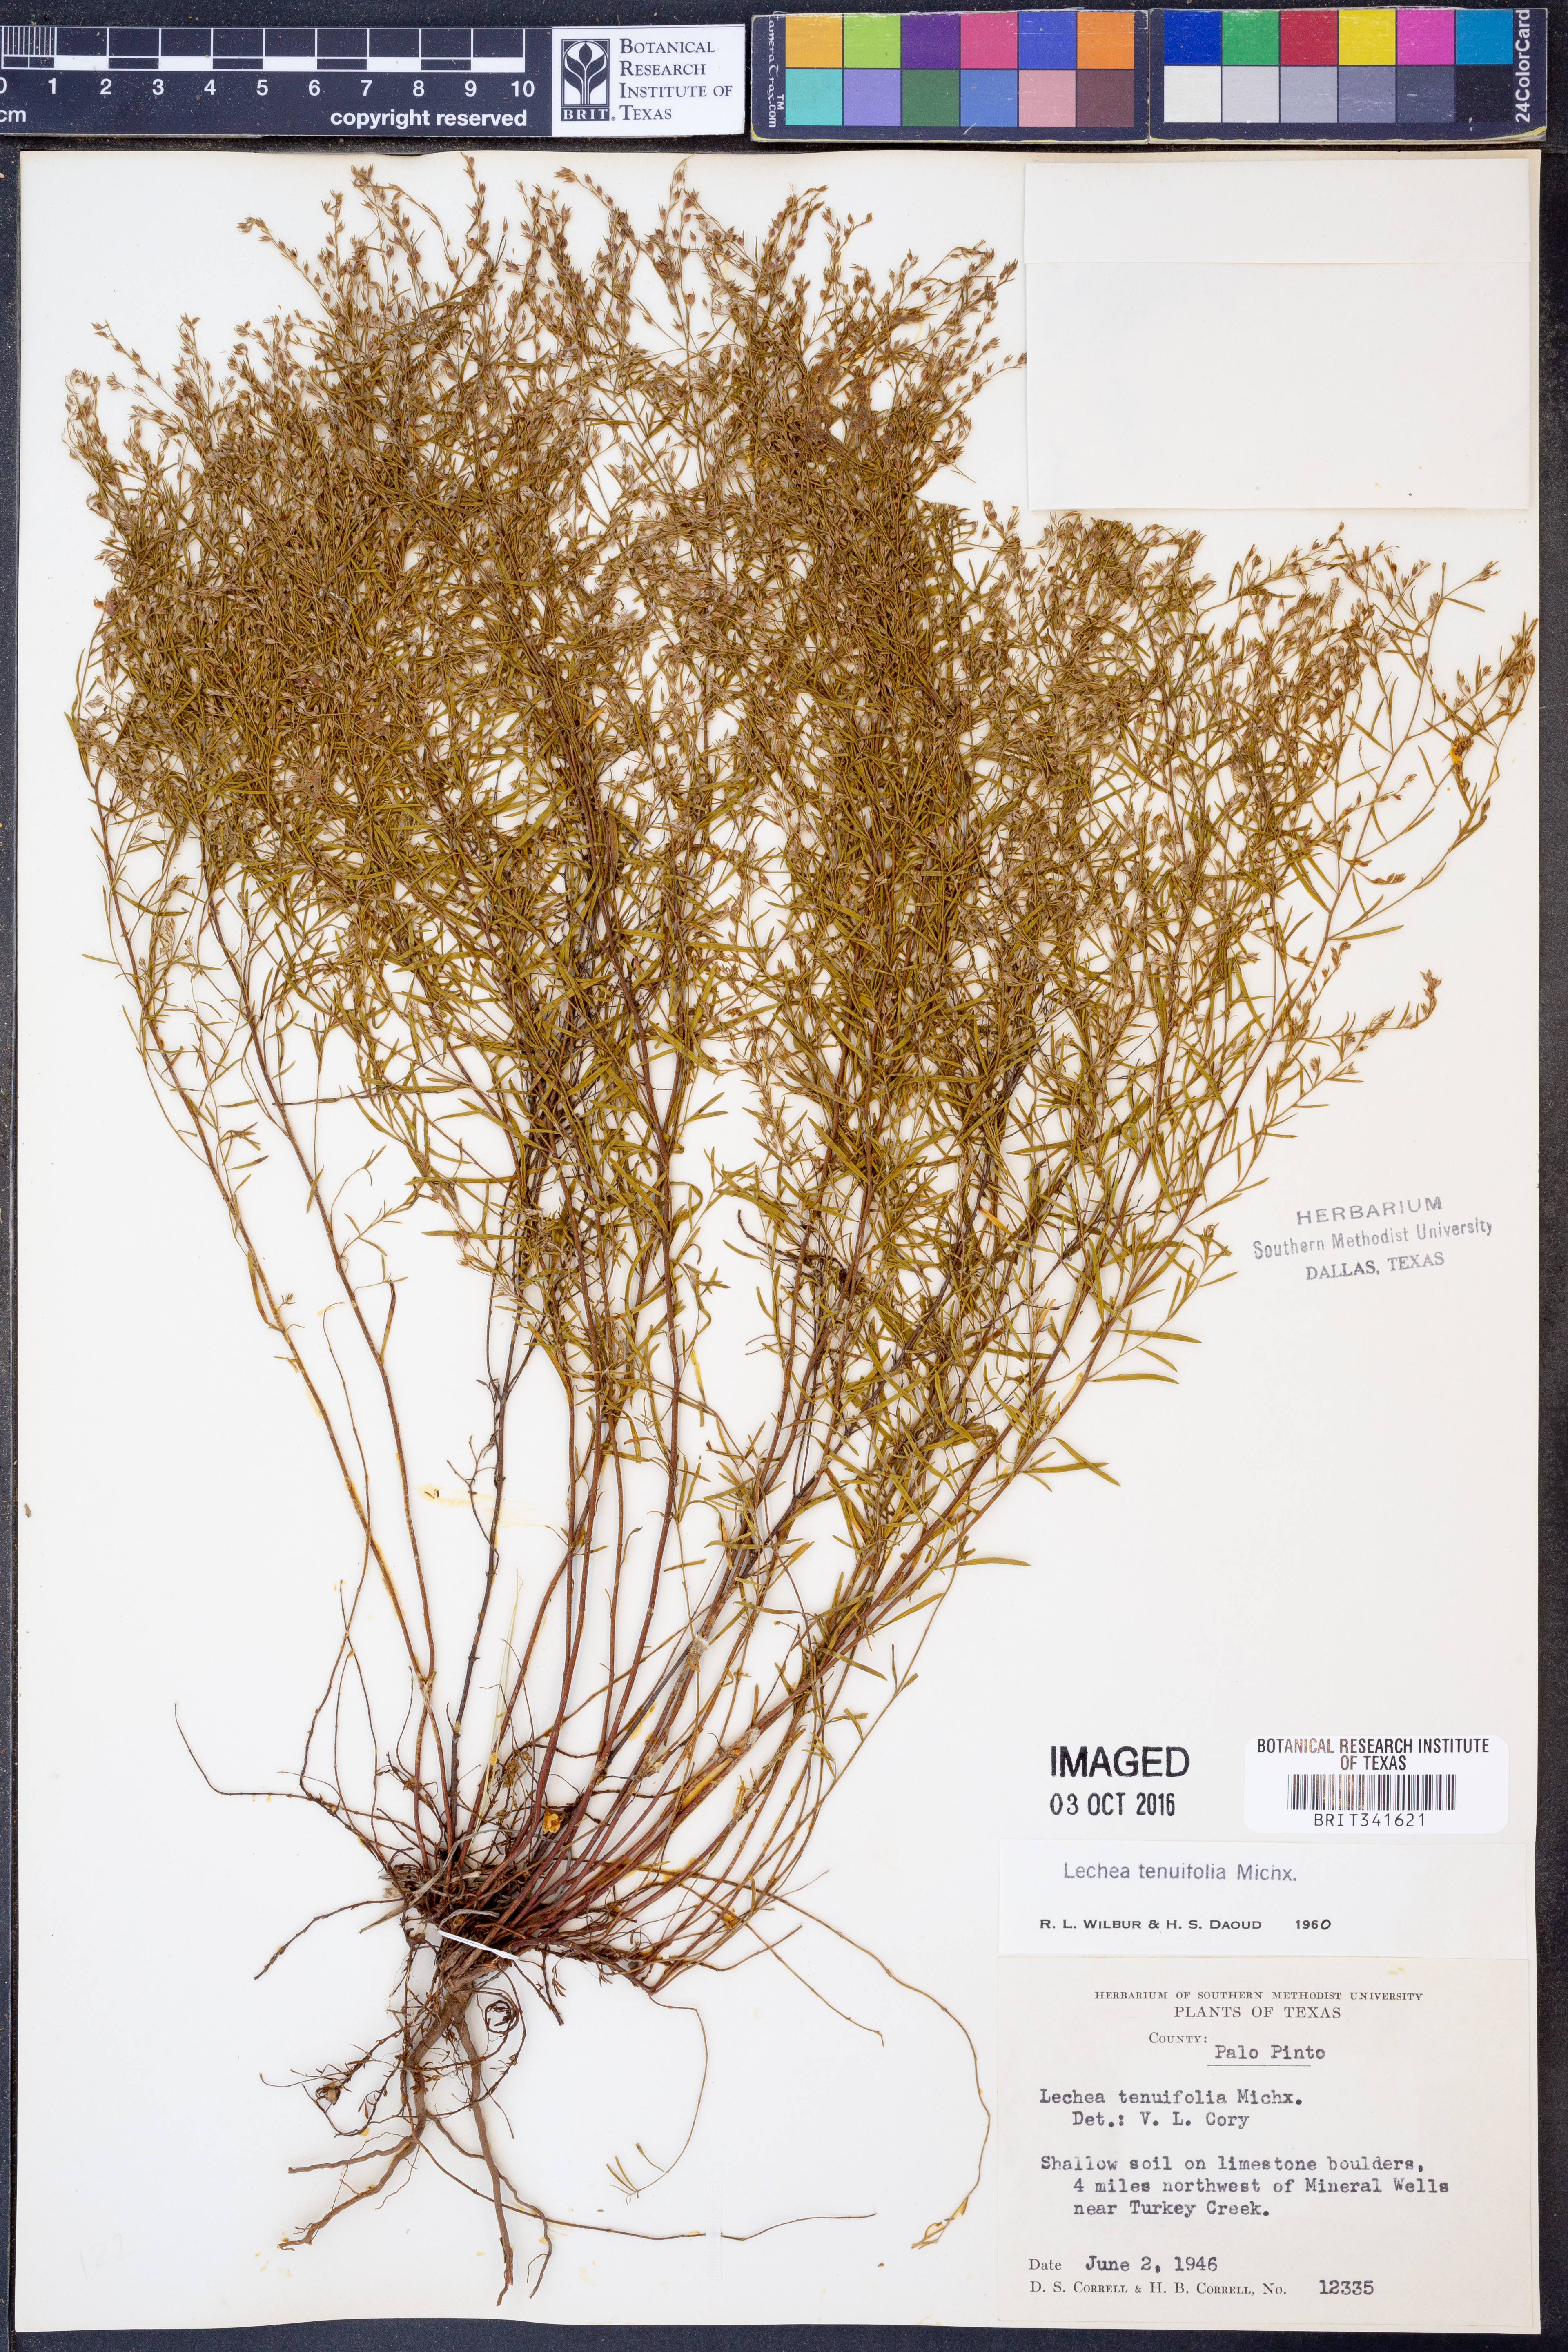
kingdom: Plantae
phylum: Tracheophyta
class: Magnoliopsida
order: Malvales
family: Cistaceae
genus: Lechea
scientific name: Lechea tenuifolia
